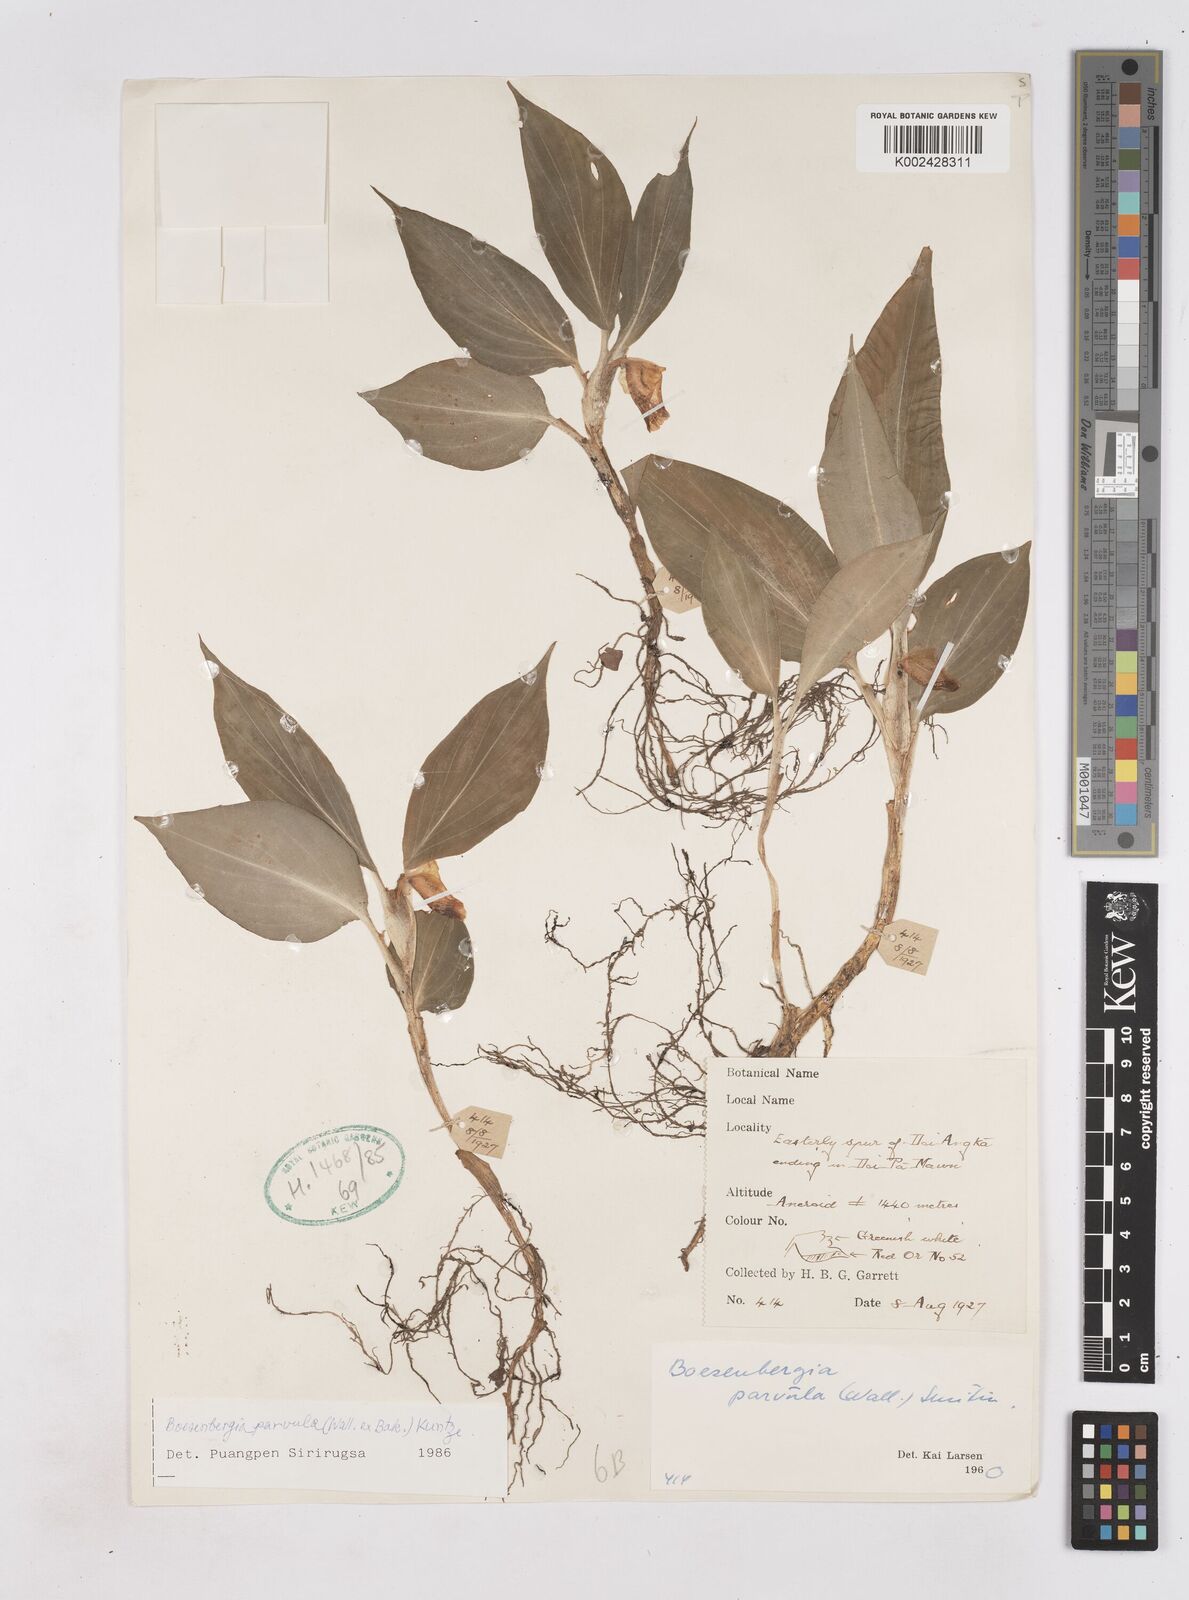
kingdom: Plantae
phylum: Tracheophyta
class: Liliopsida
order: Zingiberales
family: Zingiberaceae
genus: Boesenbergia
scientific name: Boesenbergia parvula
